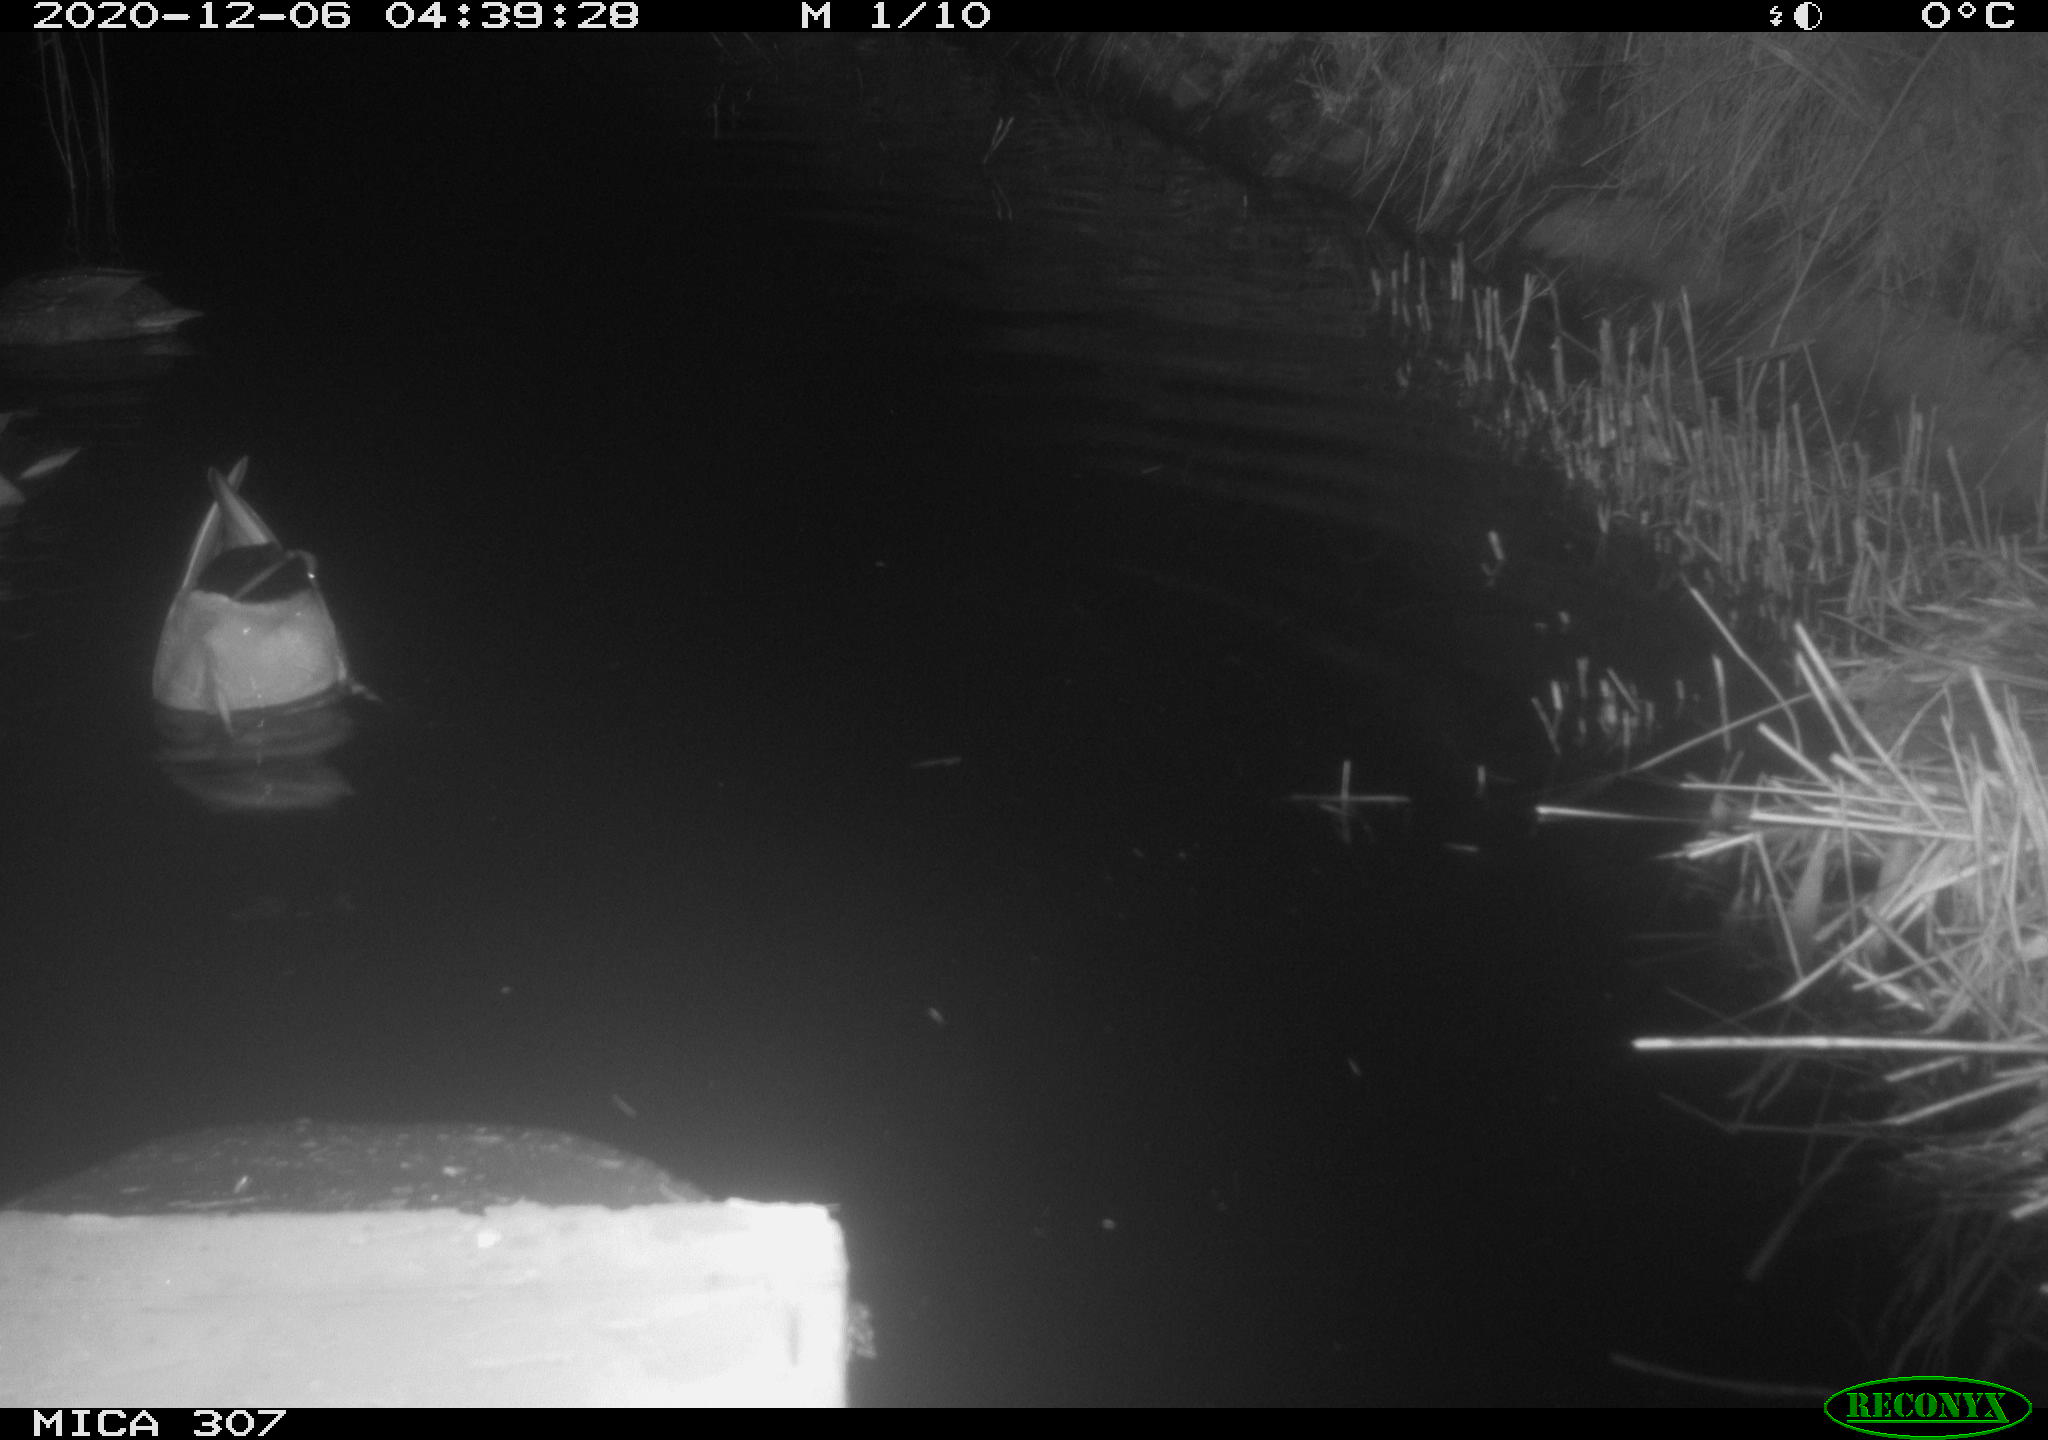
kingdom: Animalia
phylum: Chordata
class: Aves
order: Anseriformes
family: Anatidae
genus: Anas
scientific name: Anas platyrhynchos
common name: Mallard
